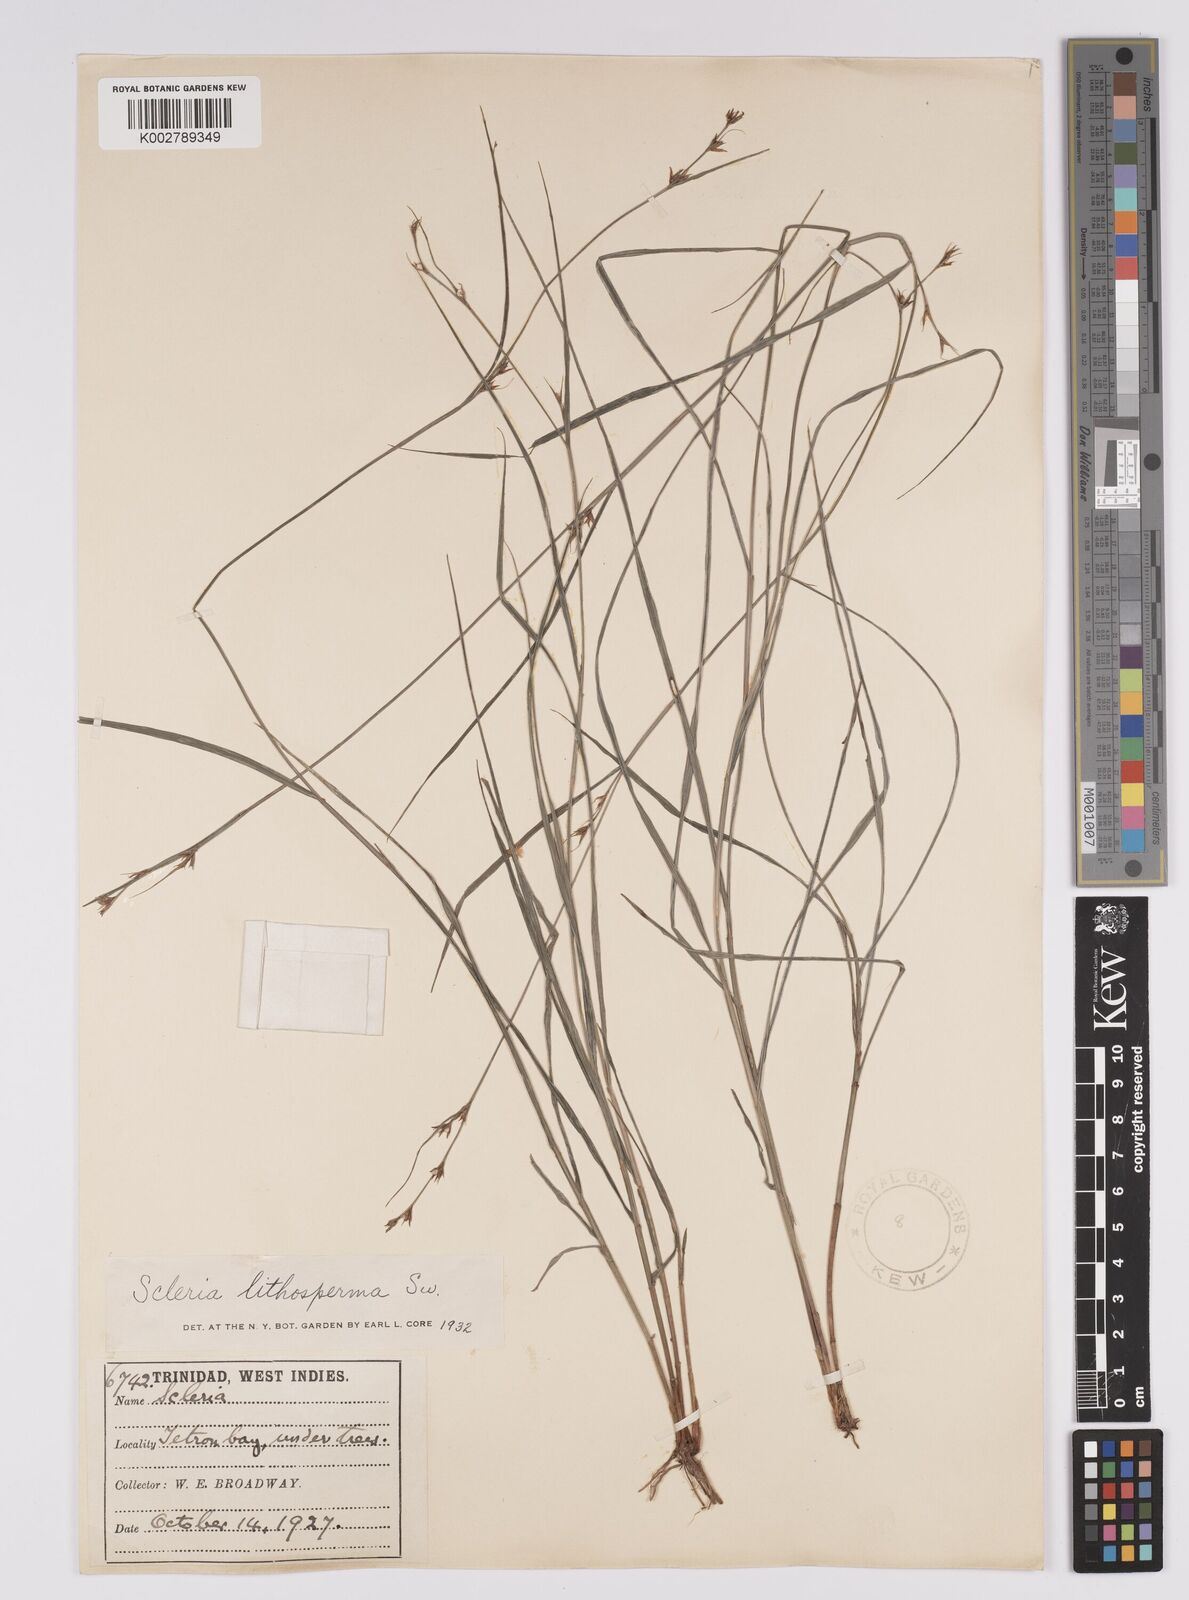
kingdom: Plantae
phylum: Tracheophyta
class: Liliopsida
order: Poales
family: Cyperaceae
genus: Scleria
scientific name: Scleria lithosperma
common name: Florida keys nut-rush
